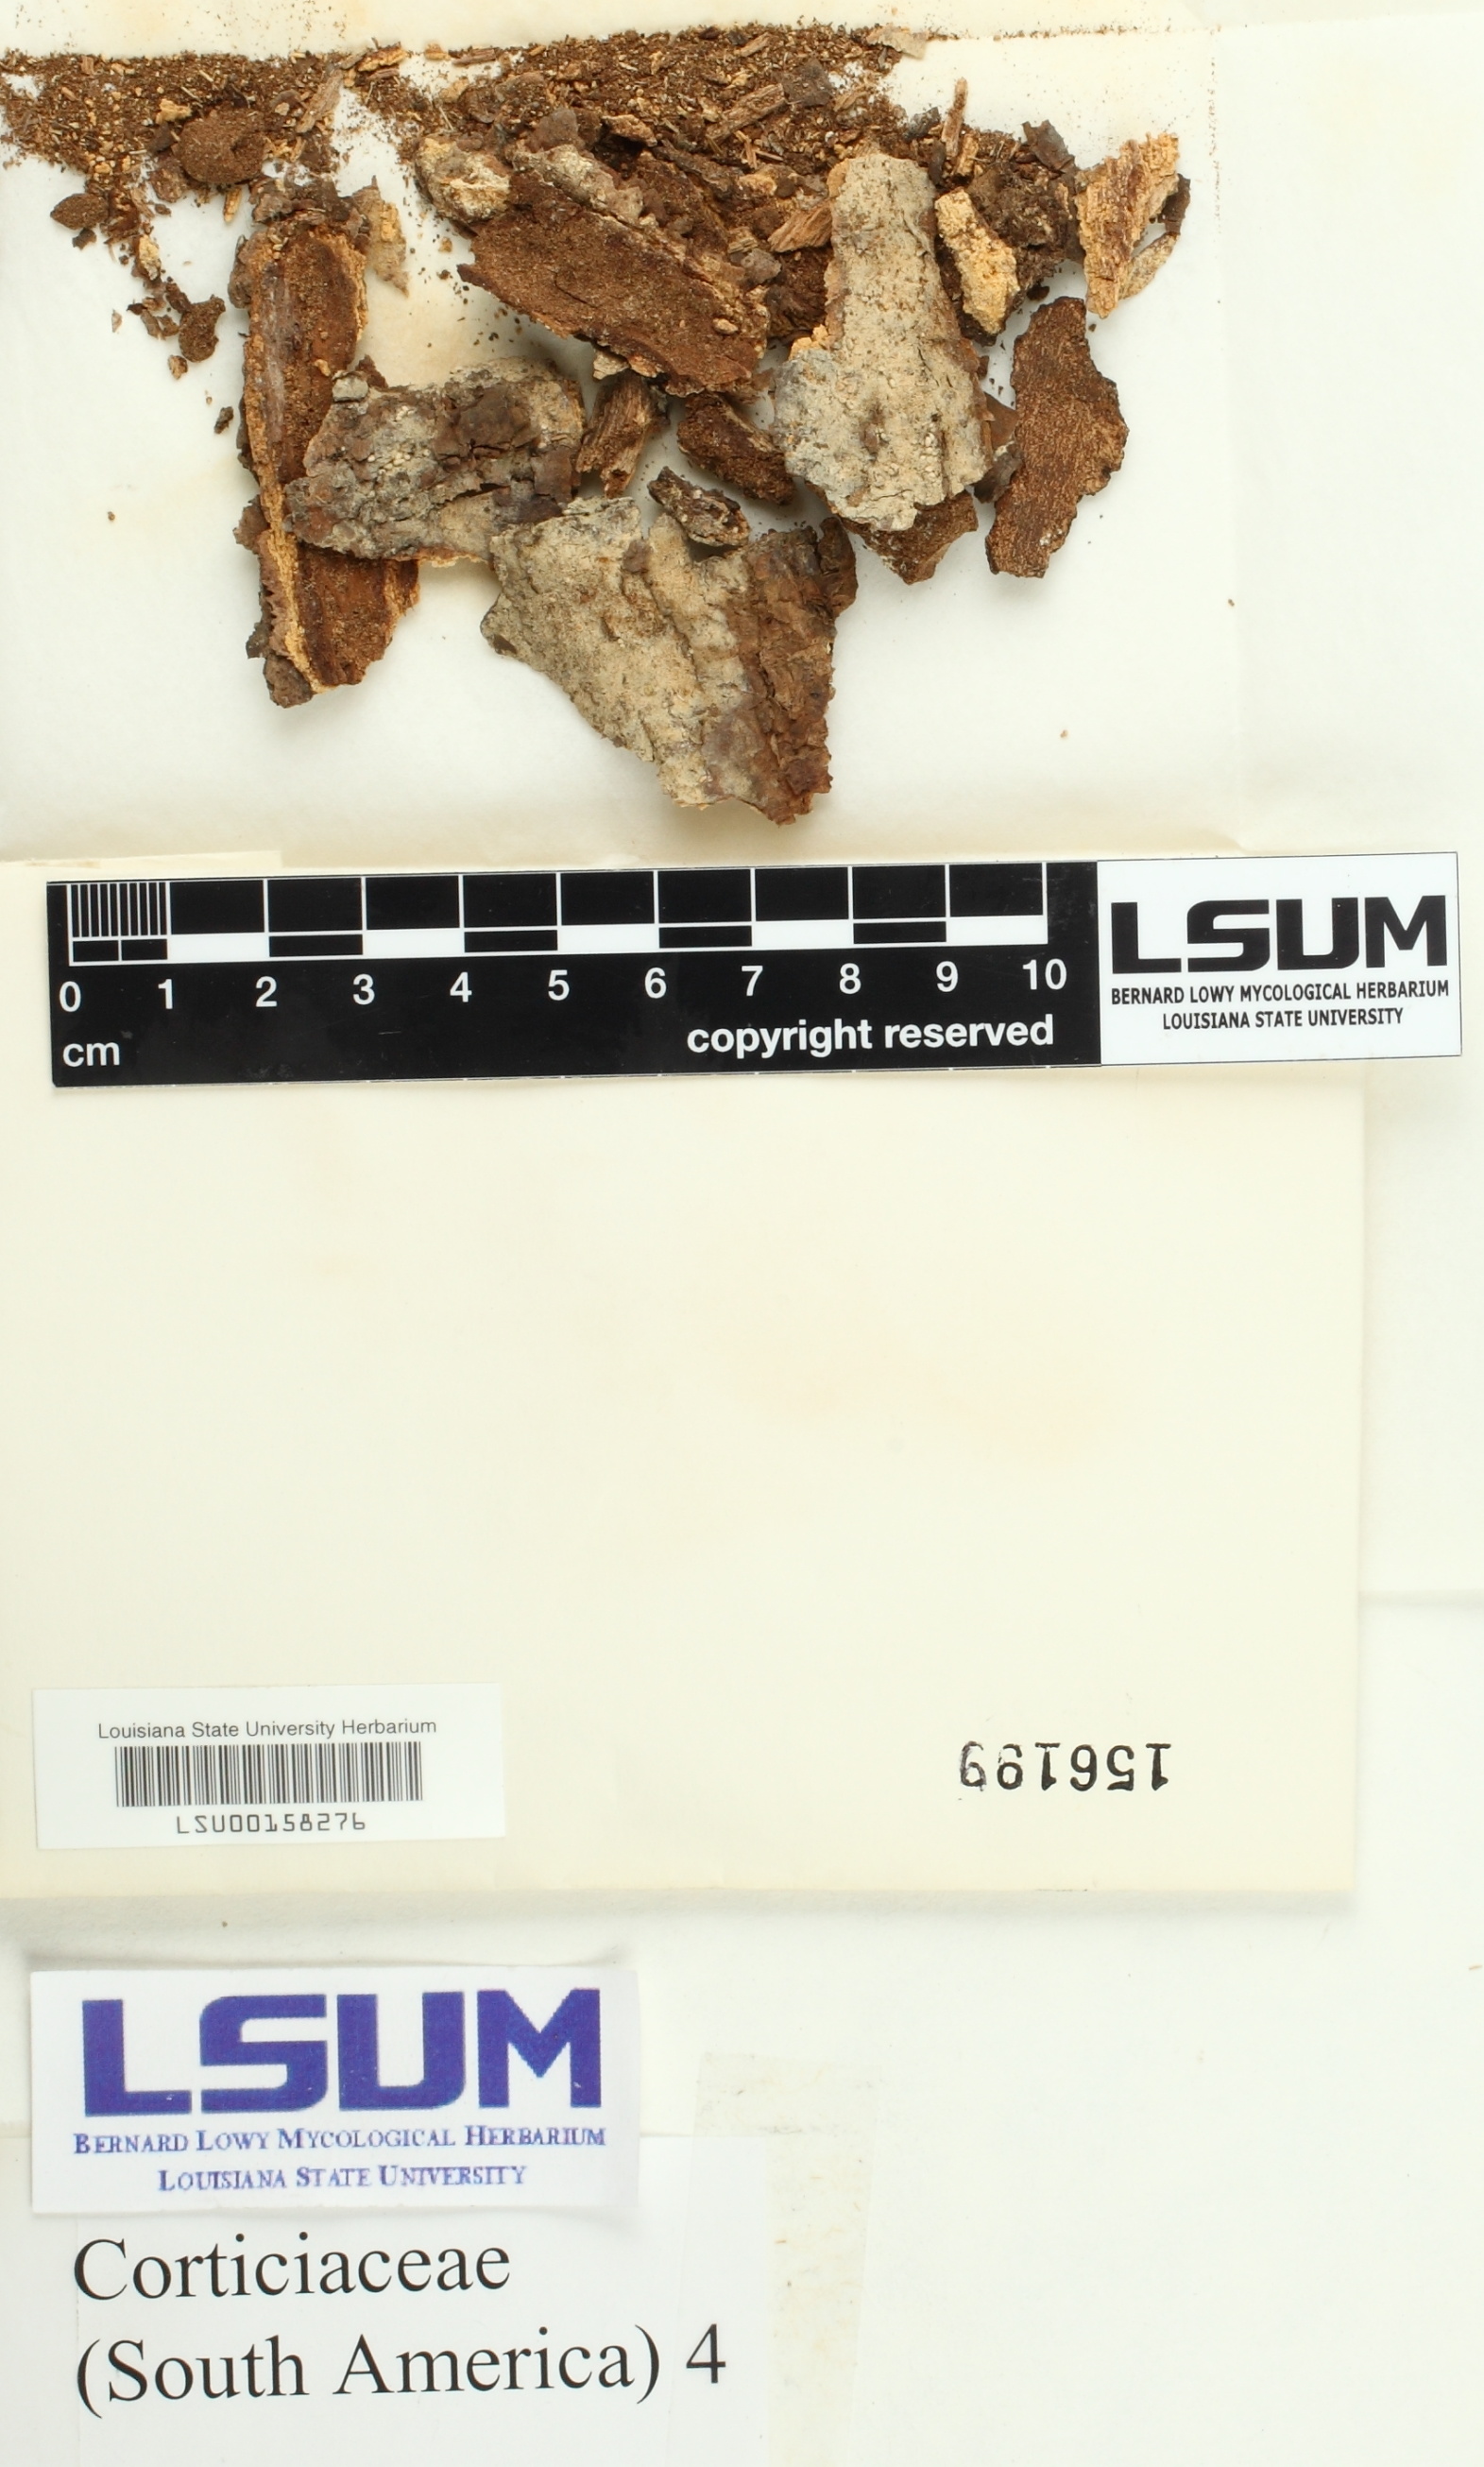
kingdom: Fungi
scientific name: Fungi
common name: Fungi
